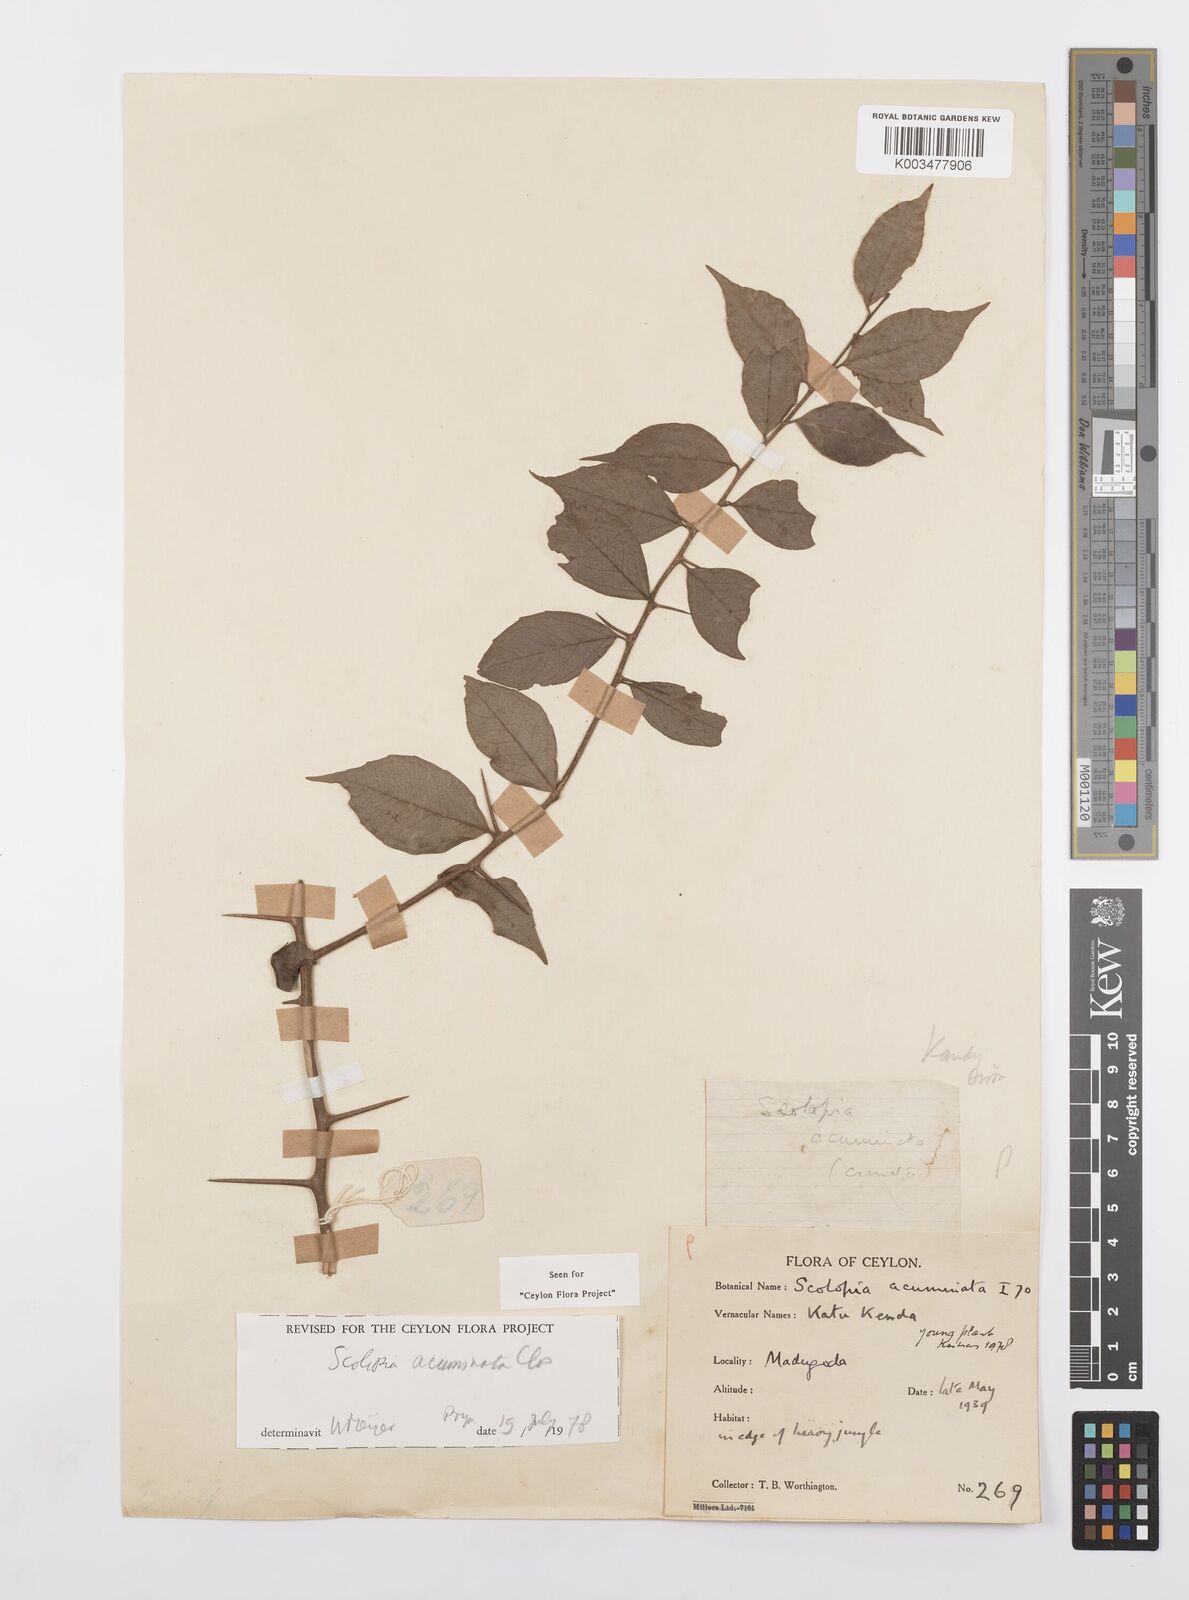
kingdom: Plantae
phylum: Tracheophyta
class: Magnoliopsida
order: Malpighiales
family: Salicaceae
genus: Scolopia
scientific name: Scolopia acuminata
